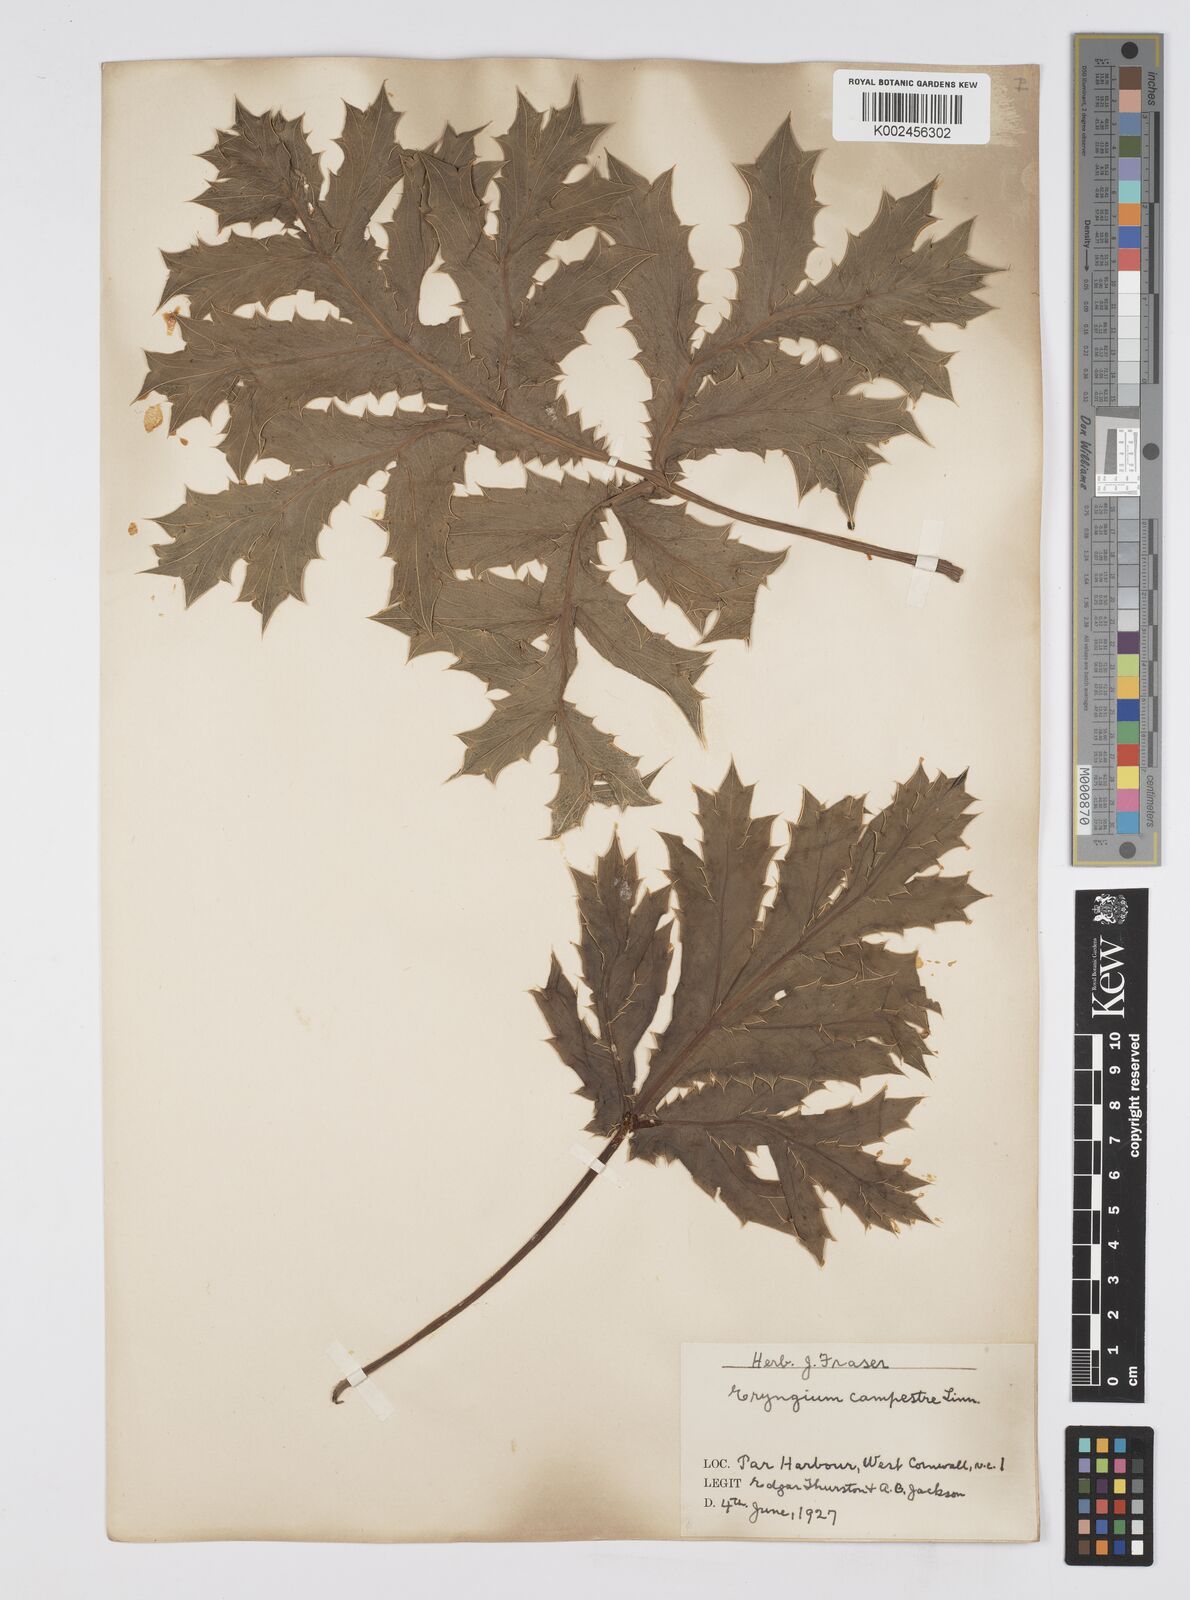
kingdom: Plantae
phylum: Tracheophyta
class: Magnoliopsida
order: Apiales
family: Apiaceae
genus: Eryngium
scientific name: Eryngium campestre
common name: Field eryngo
